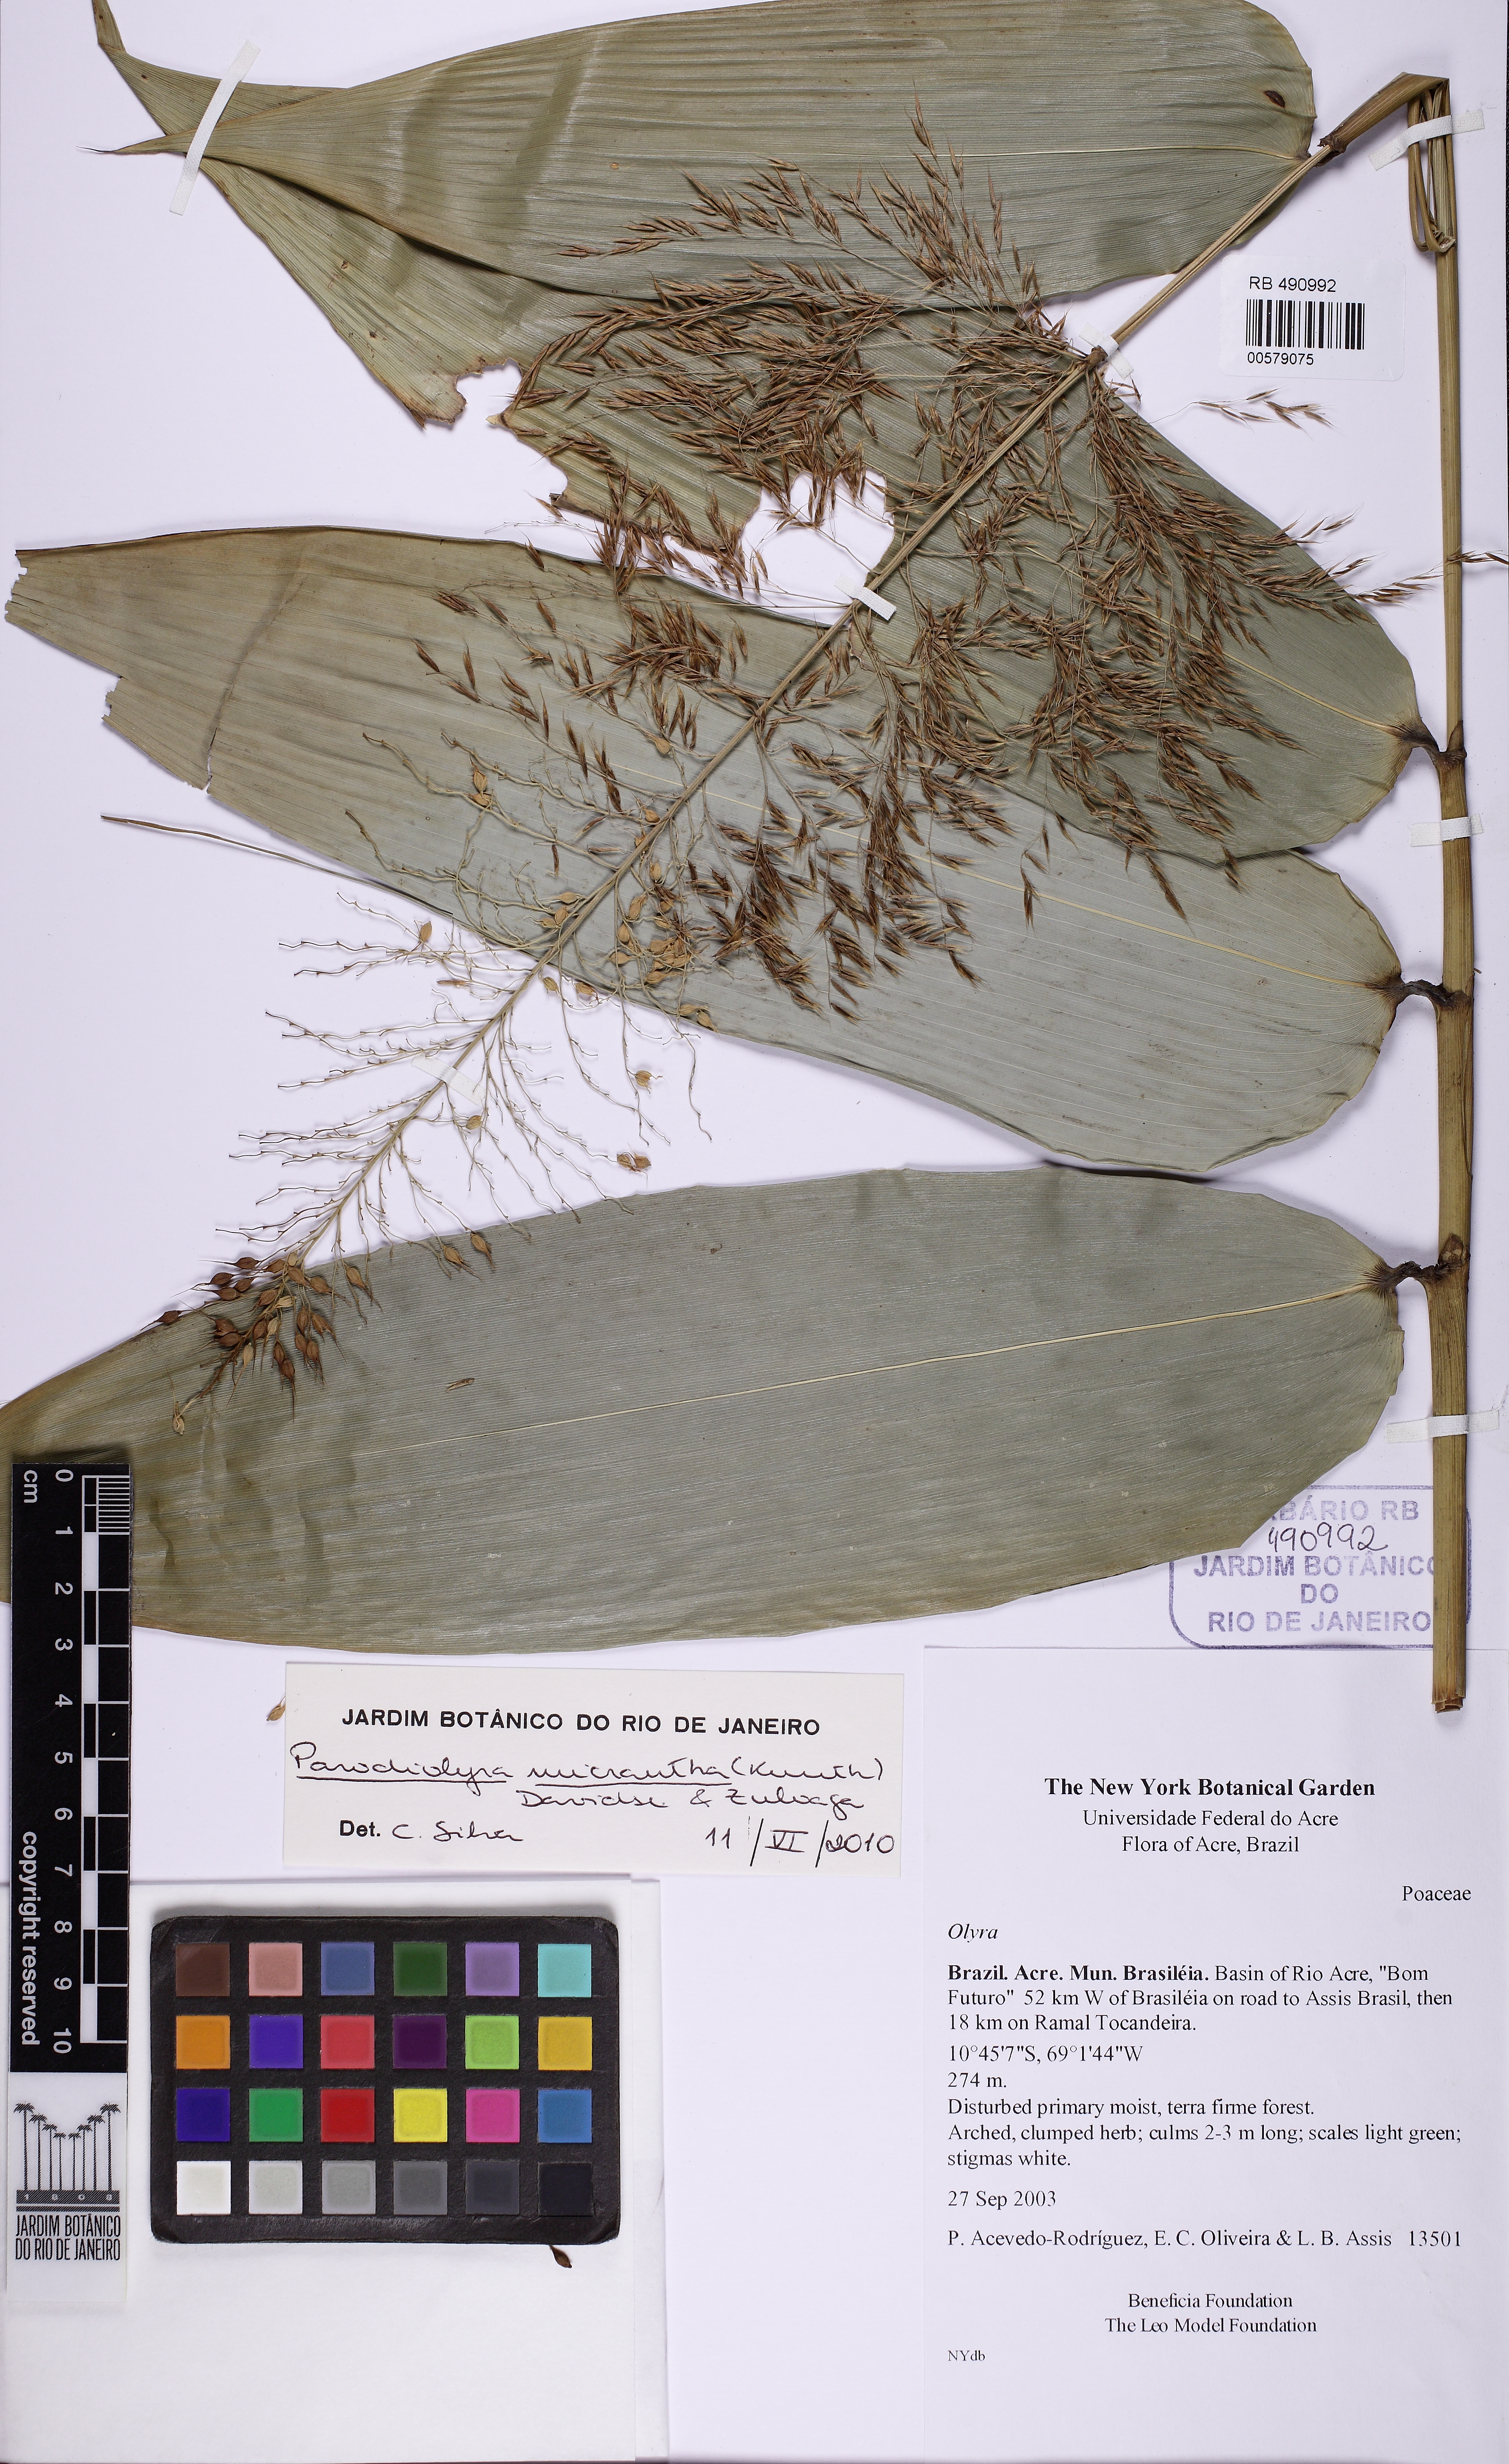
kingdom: Plantae
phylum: Tracheophyta
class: Liliopsida
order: Poales
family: Poaceae
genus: Taquara
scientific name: Taquara micrantha
